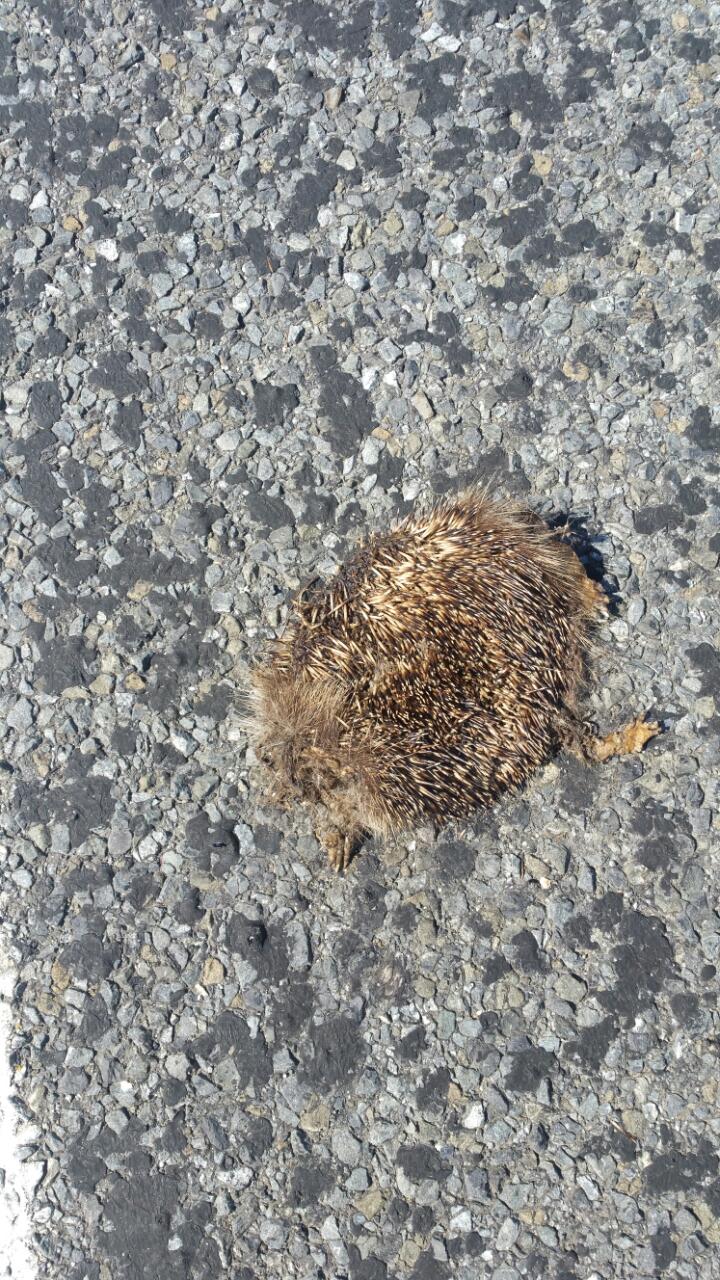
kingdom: Animalia
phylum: Chordata
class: Mammalia
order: Erinaceomorpha
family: Erinaceidae
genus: Erinaceus
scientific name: Erinaceus
